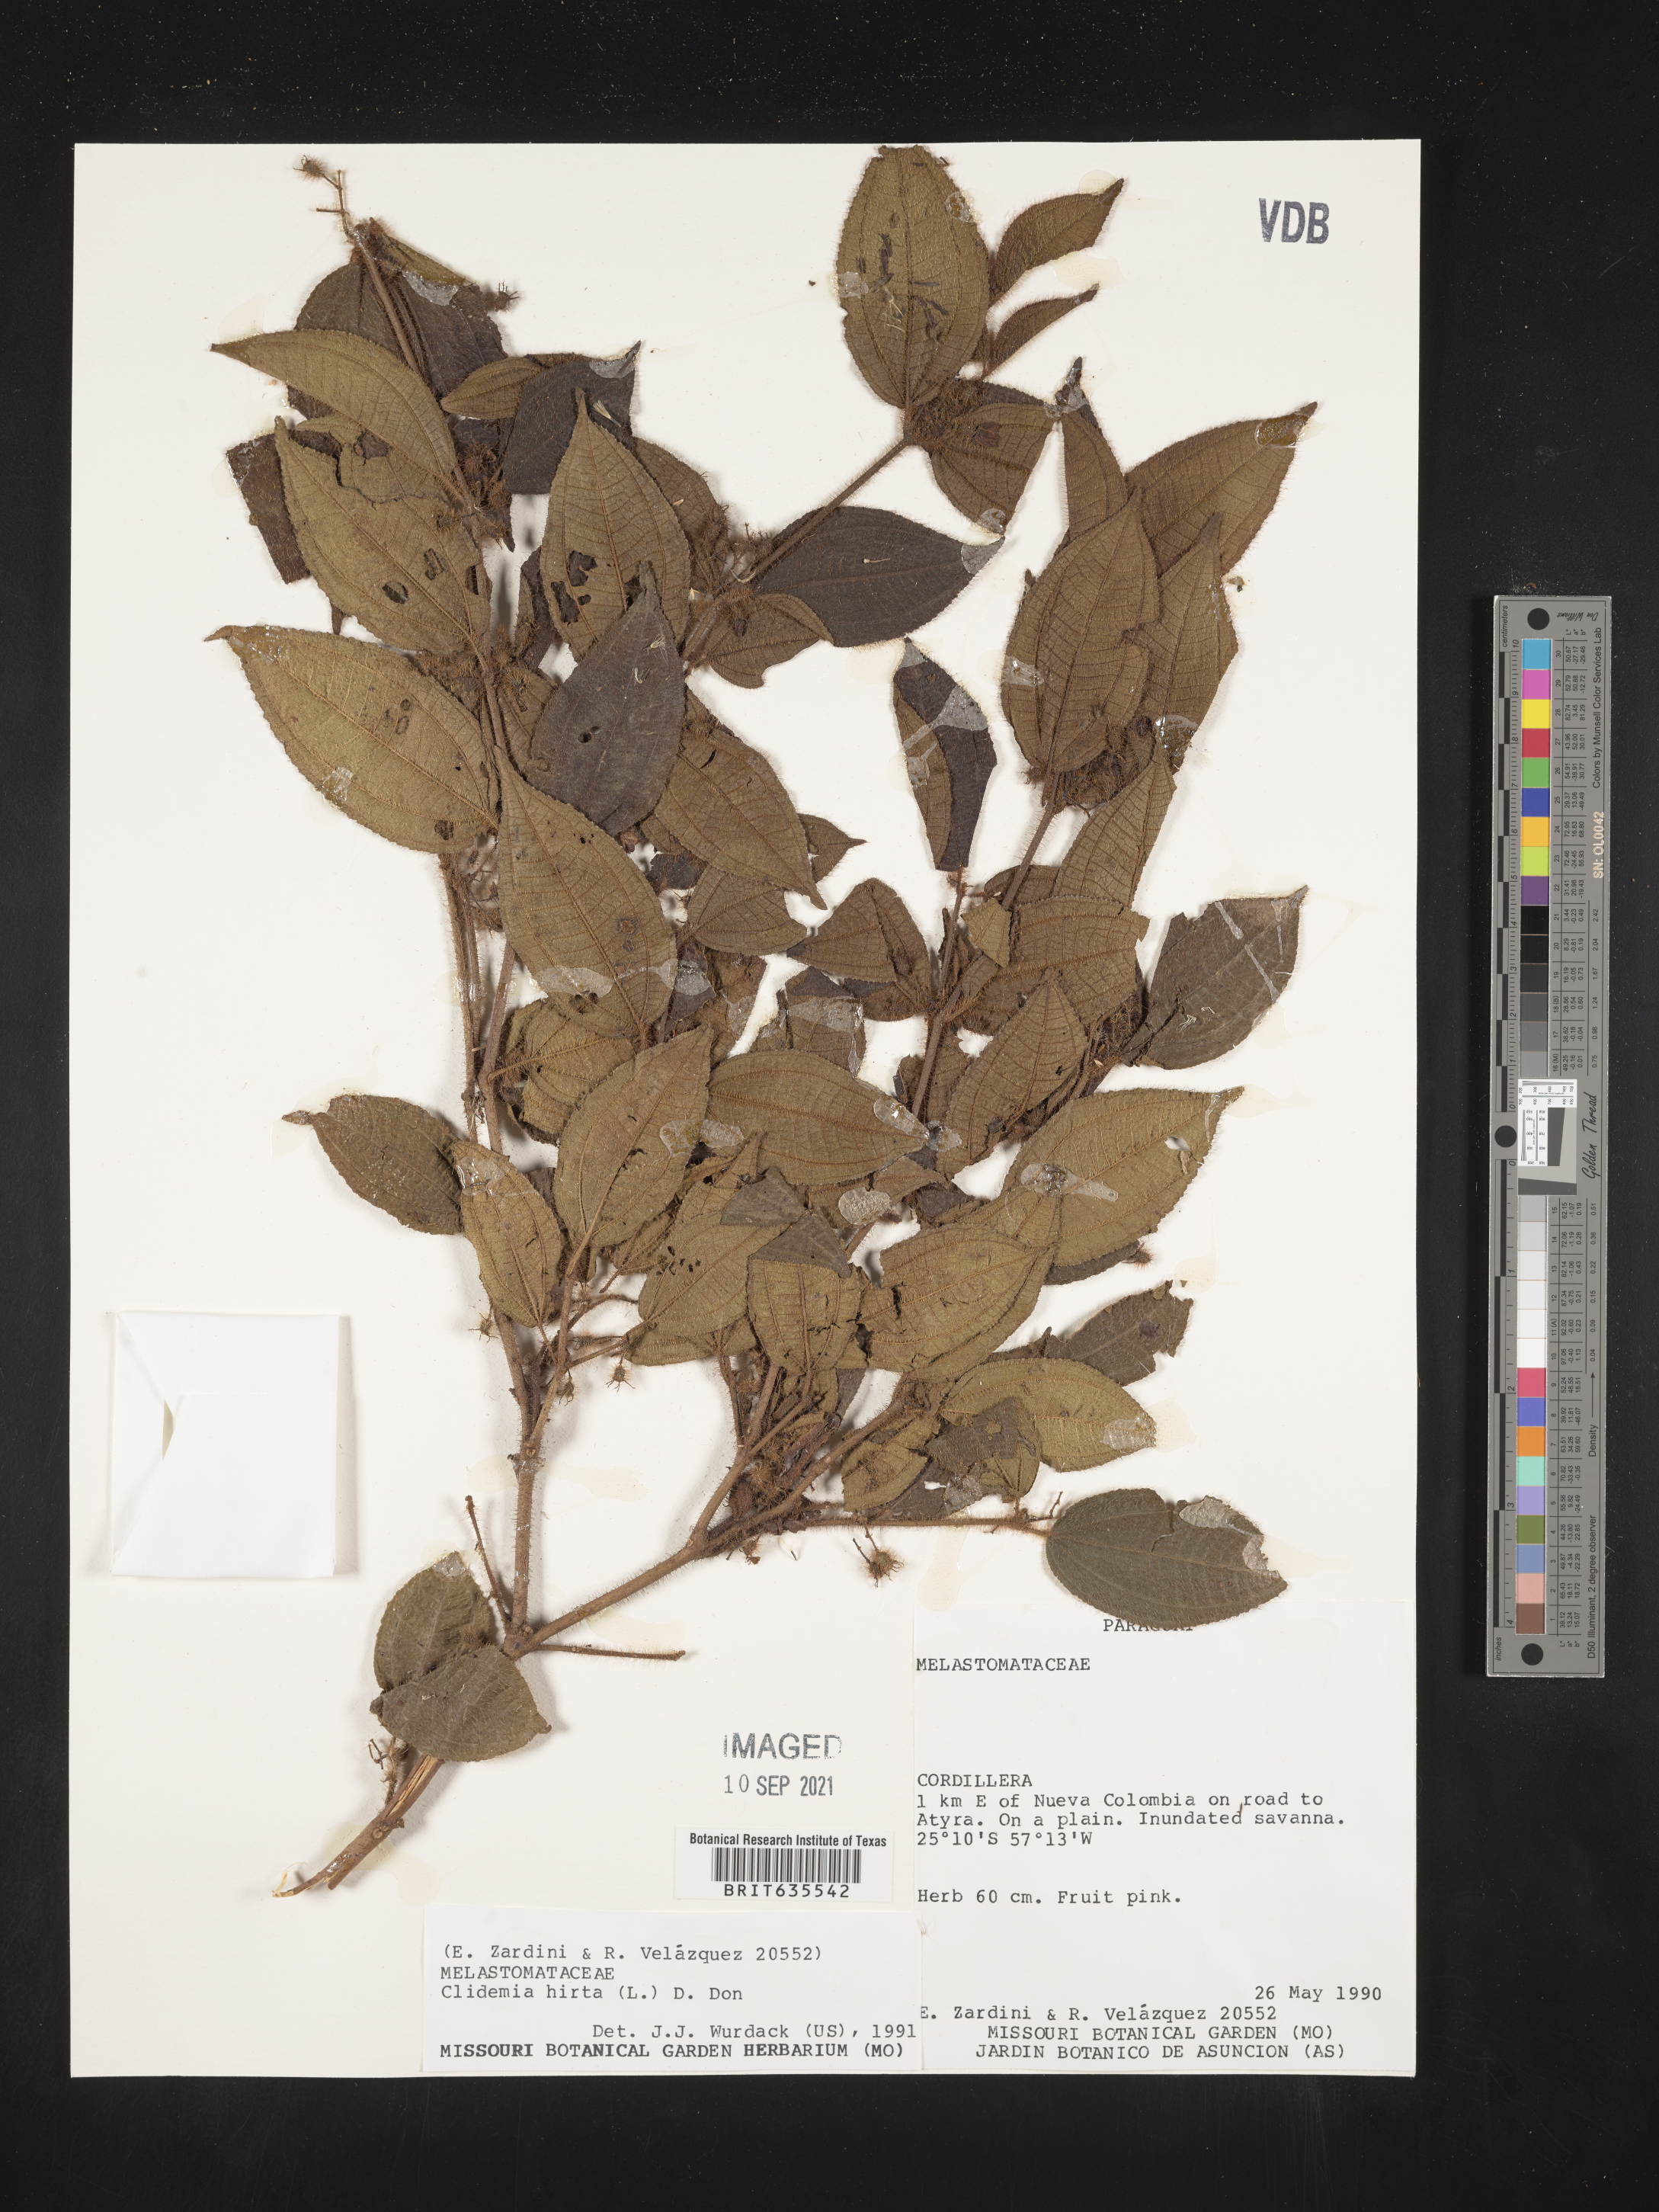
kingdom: Plantae
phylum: Tracheophyta
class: Magnoliopsida
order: Myrtales
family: Melastomataceae
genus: Miconia
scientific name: Miconia
